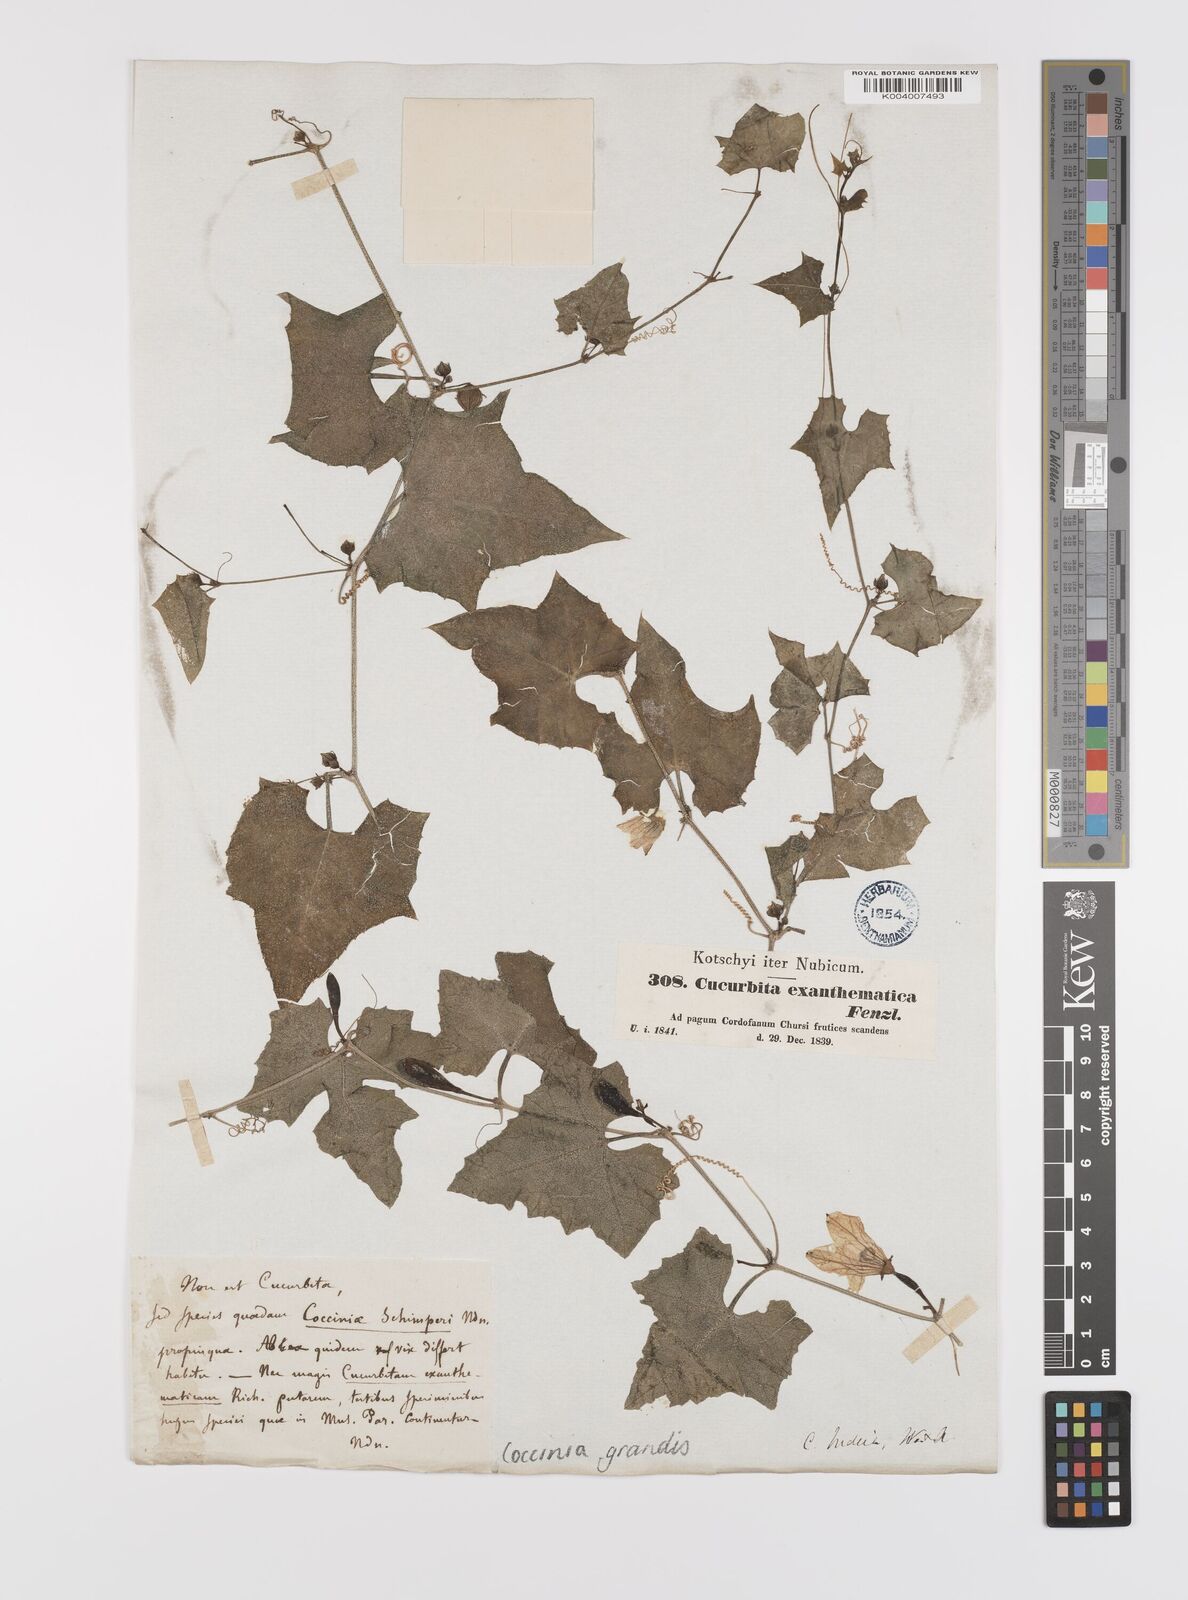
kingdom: Plantae
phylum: Tracheophyta
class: Magnoliopsida
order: Cucurbitales
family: Cucurbitaceae
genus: Coccinia
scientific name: Coccinia grandis
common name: Ivy gourd
